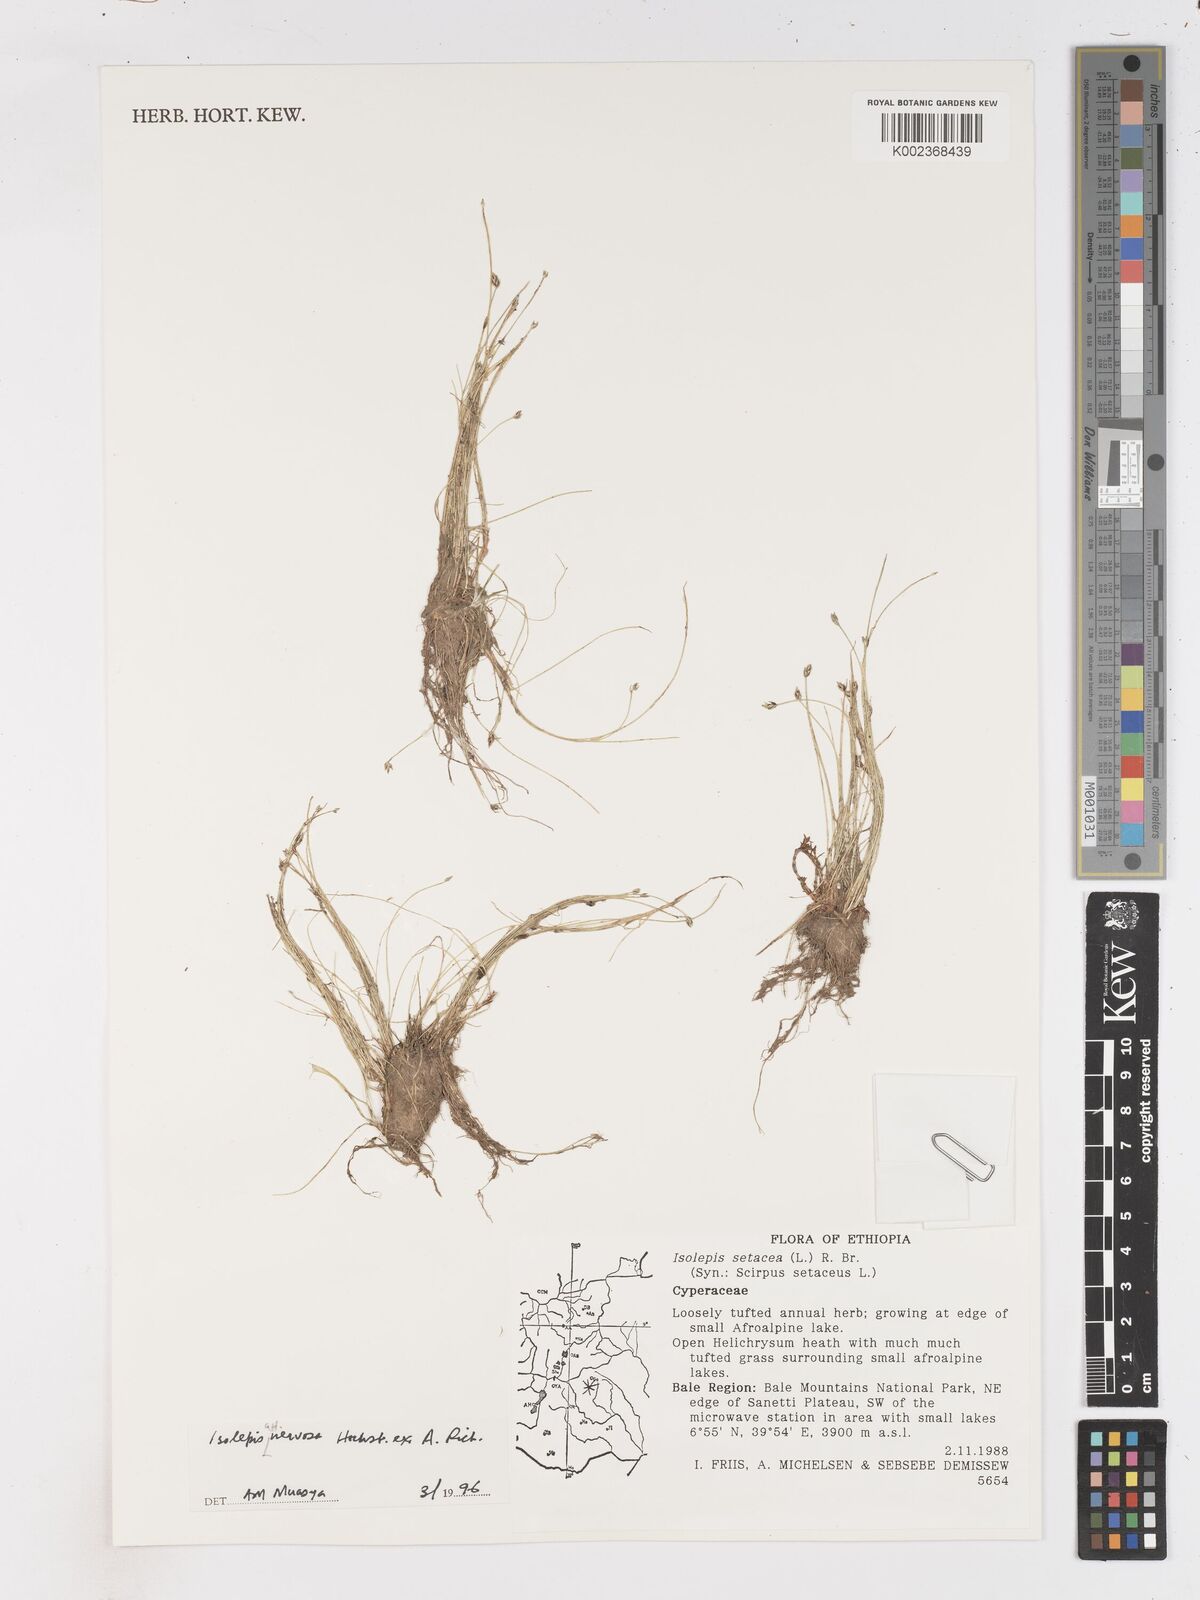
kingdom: Plantae
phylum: Tracheophyta
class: Liliopsida
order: Poales
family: Cyperaceae
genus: Isolepis
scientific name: Isolepis fluitans
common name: Floating club-rush
